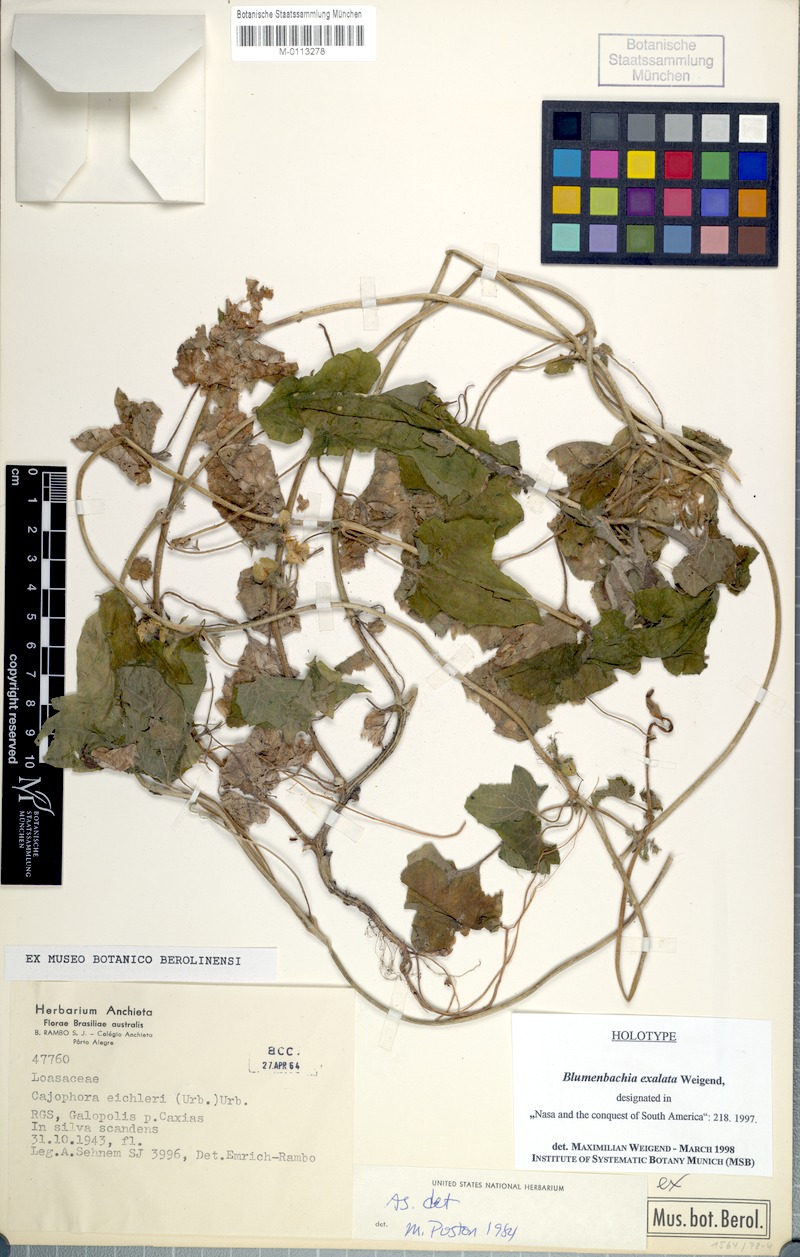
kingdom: Plantae
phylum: Tracheophyta
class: Magnoliopsida
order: Cornales
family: Loasaceae
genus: Blumenbachia
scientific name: Blumenbachia exalata
